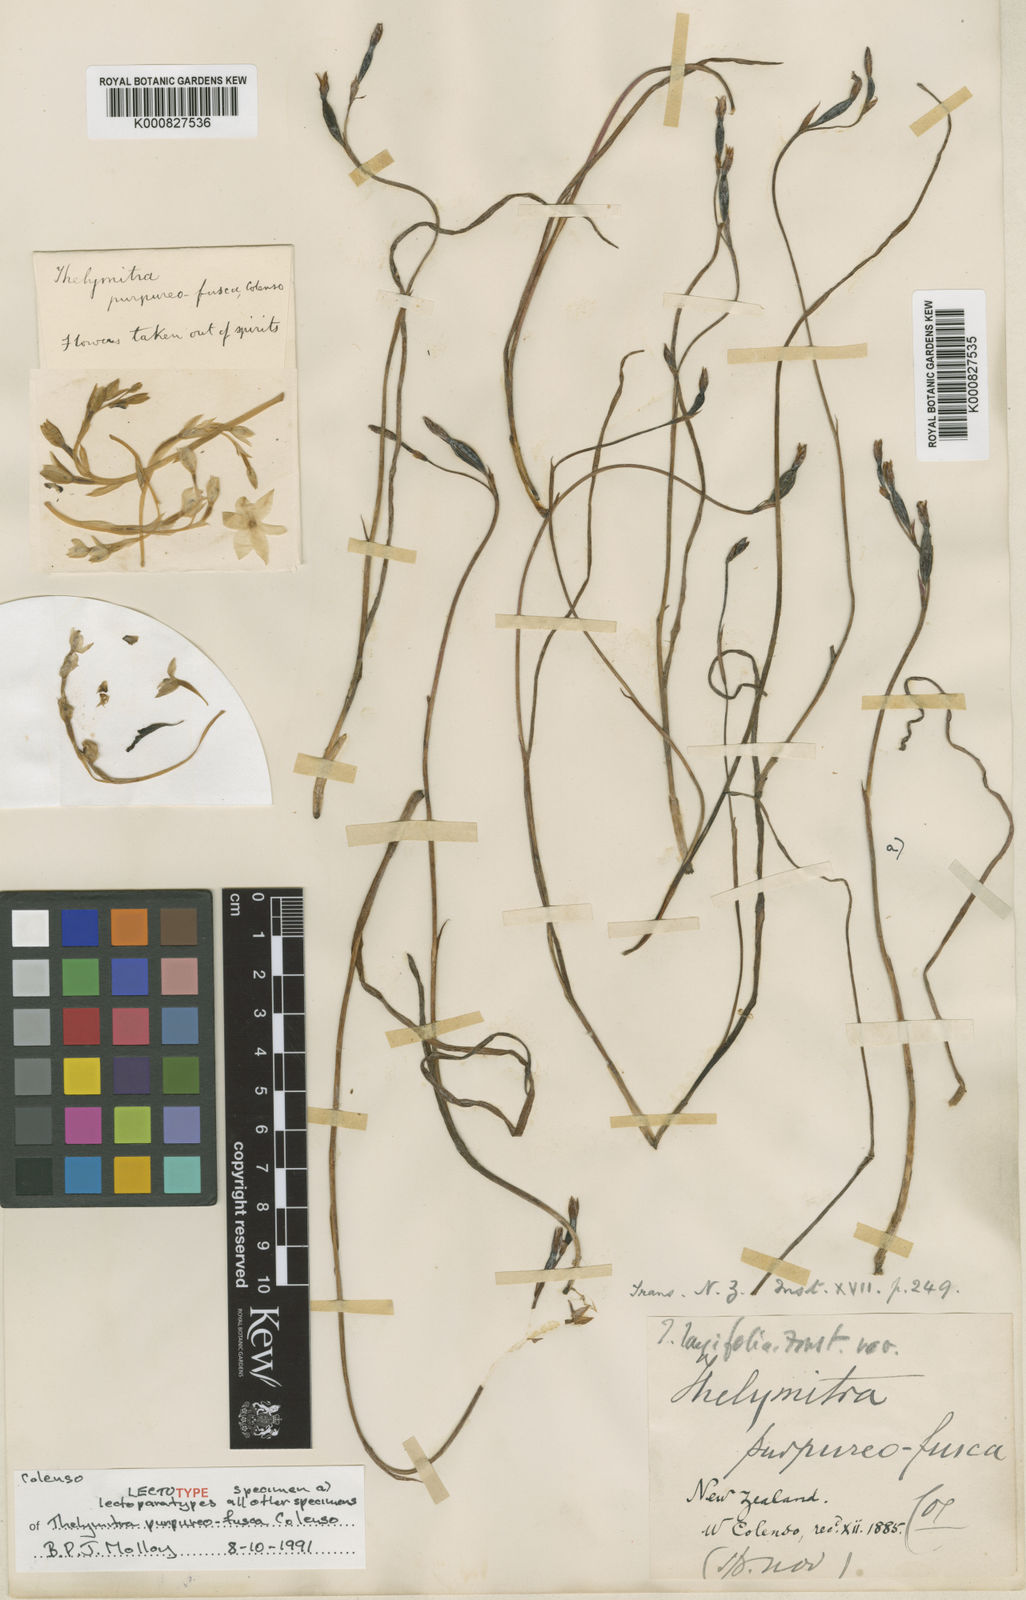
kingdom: Plantae
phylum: Tracheophyta
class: Liliopsida
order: Asparagales
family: Orchidaceae
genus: Thelymitra
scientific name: Thelymitra pauciflora
